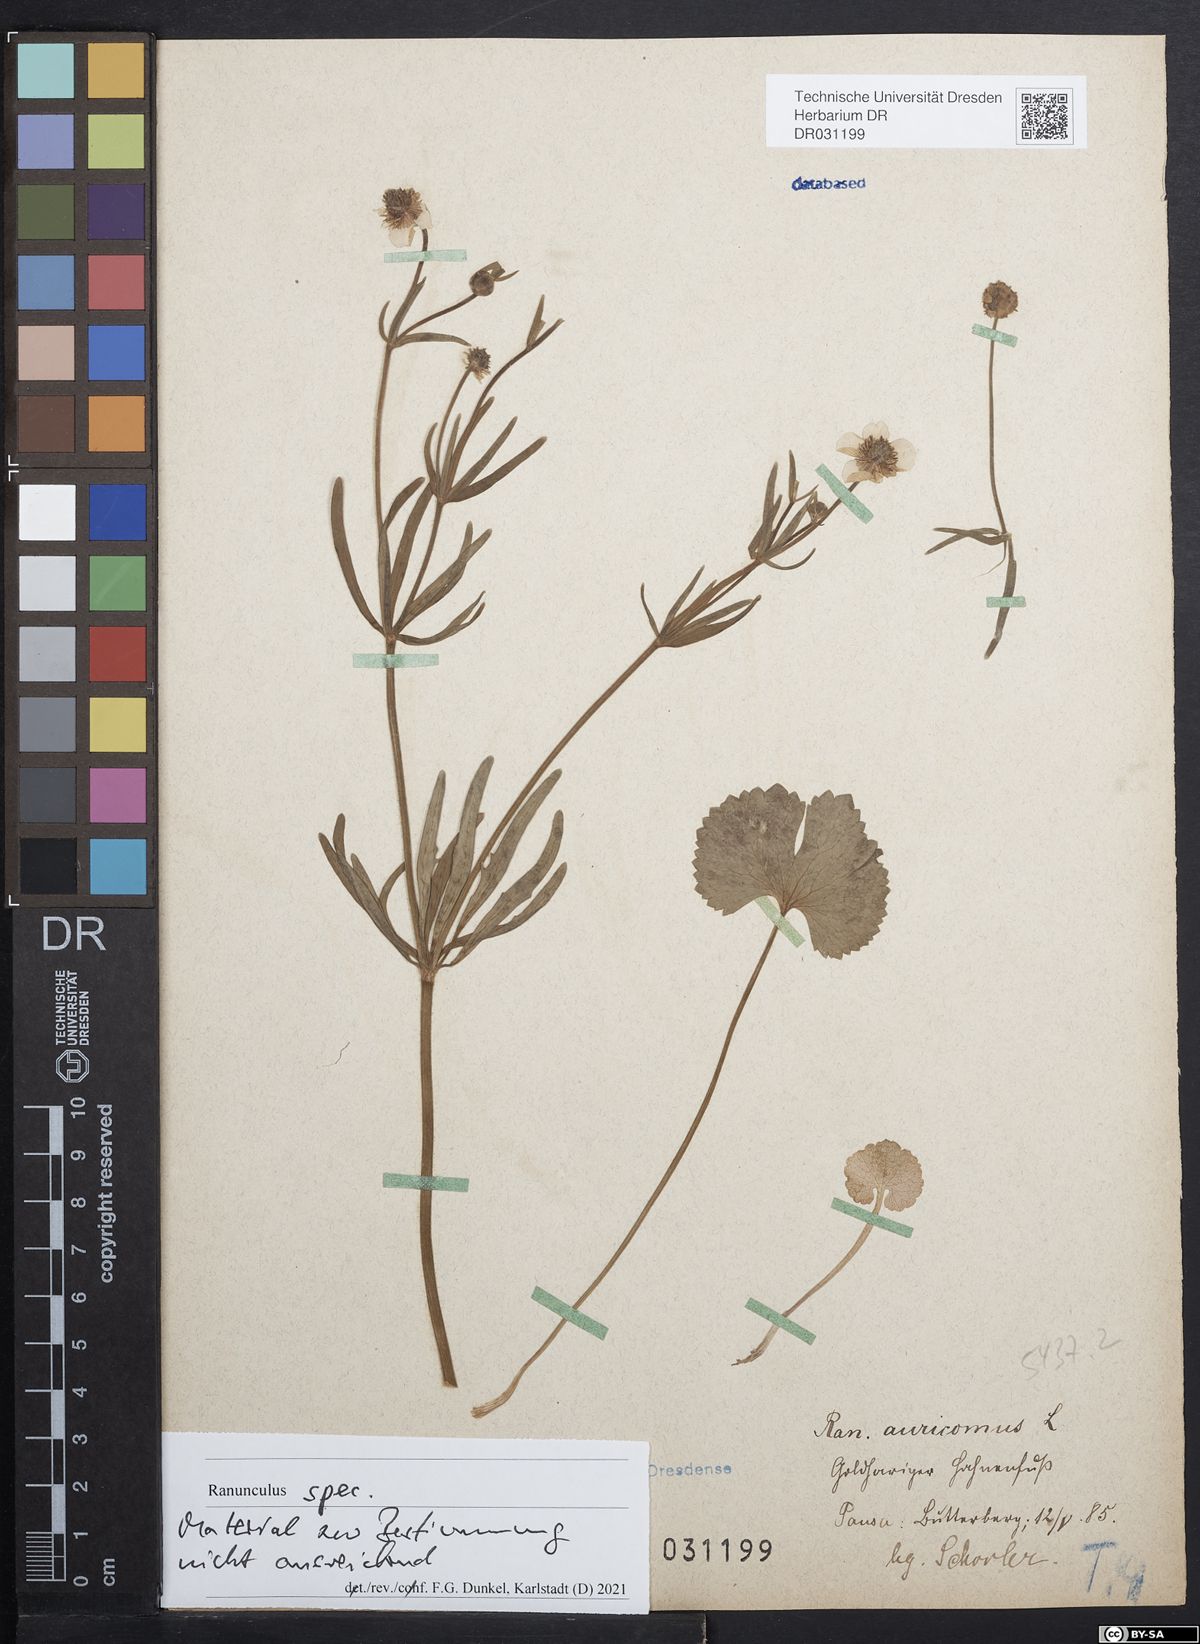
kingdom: Plantae
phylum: Tracheophyta
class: Magnoliopsida
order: Ranunculales
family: Ranunculaceae
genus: Ranunculus
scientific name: Ranunculus auricomus
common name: Goldilocks buttercup
